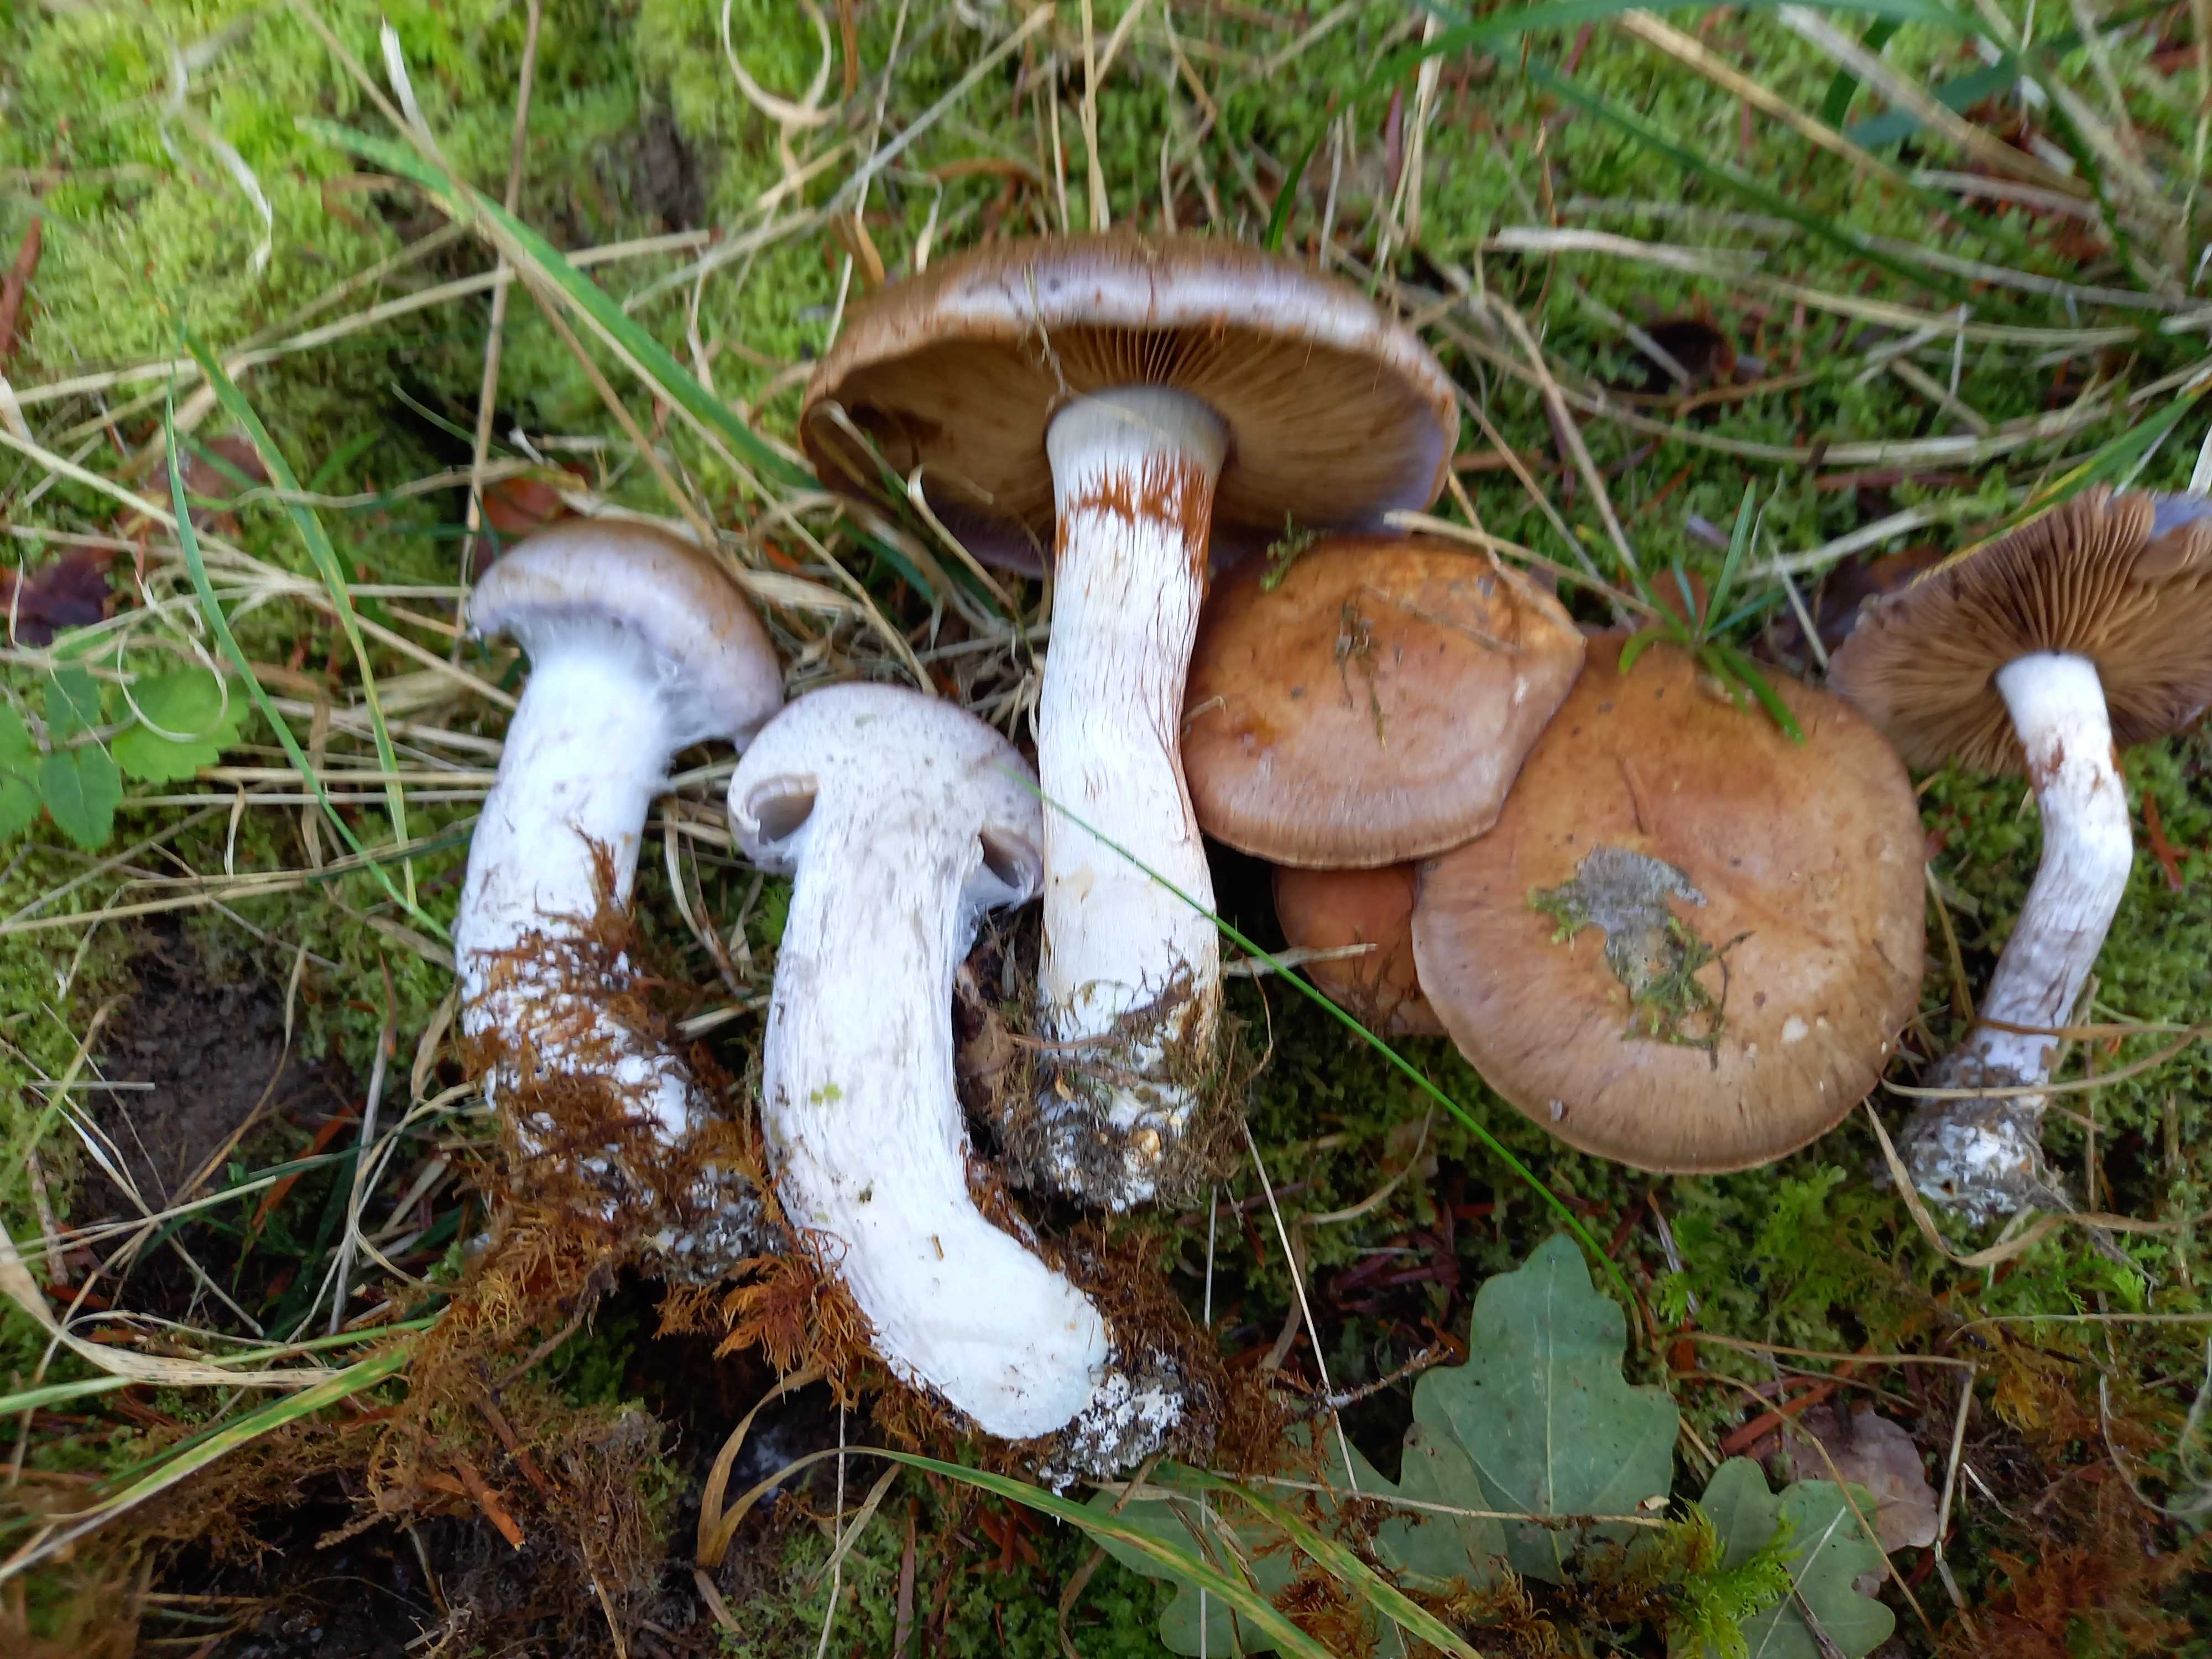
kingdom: Fungi
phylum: Basidiomycota
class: Agaricomycetes
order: Agaricales
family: Cortinariaceae
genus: Phlegmacium
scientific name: Phlegmacium eliae
